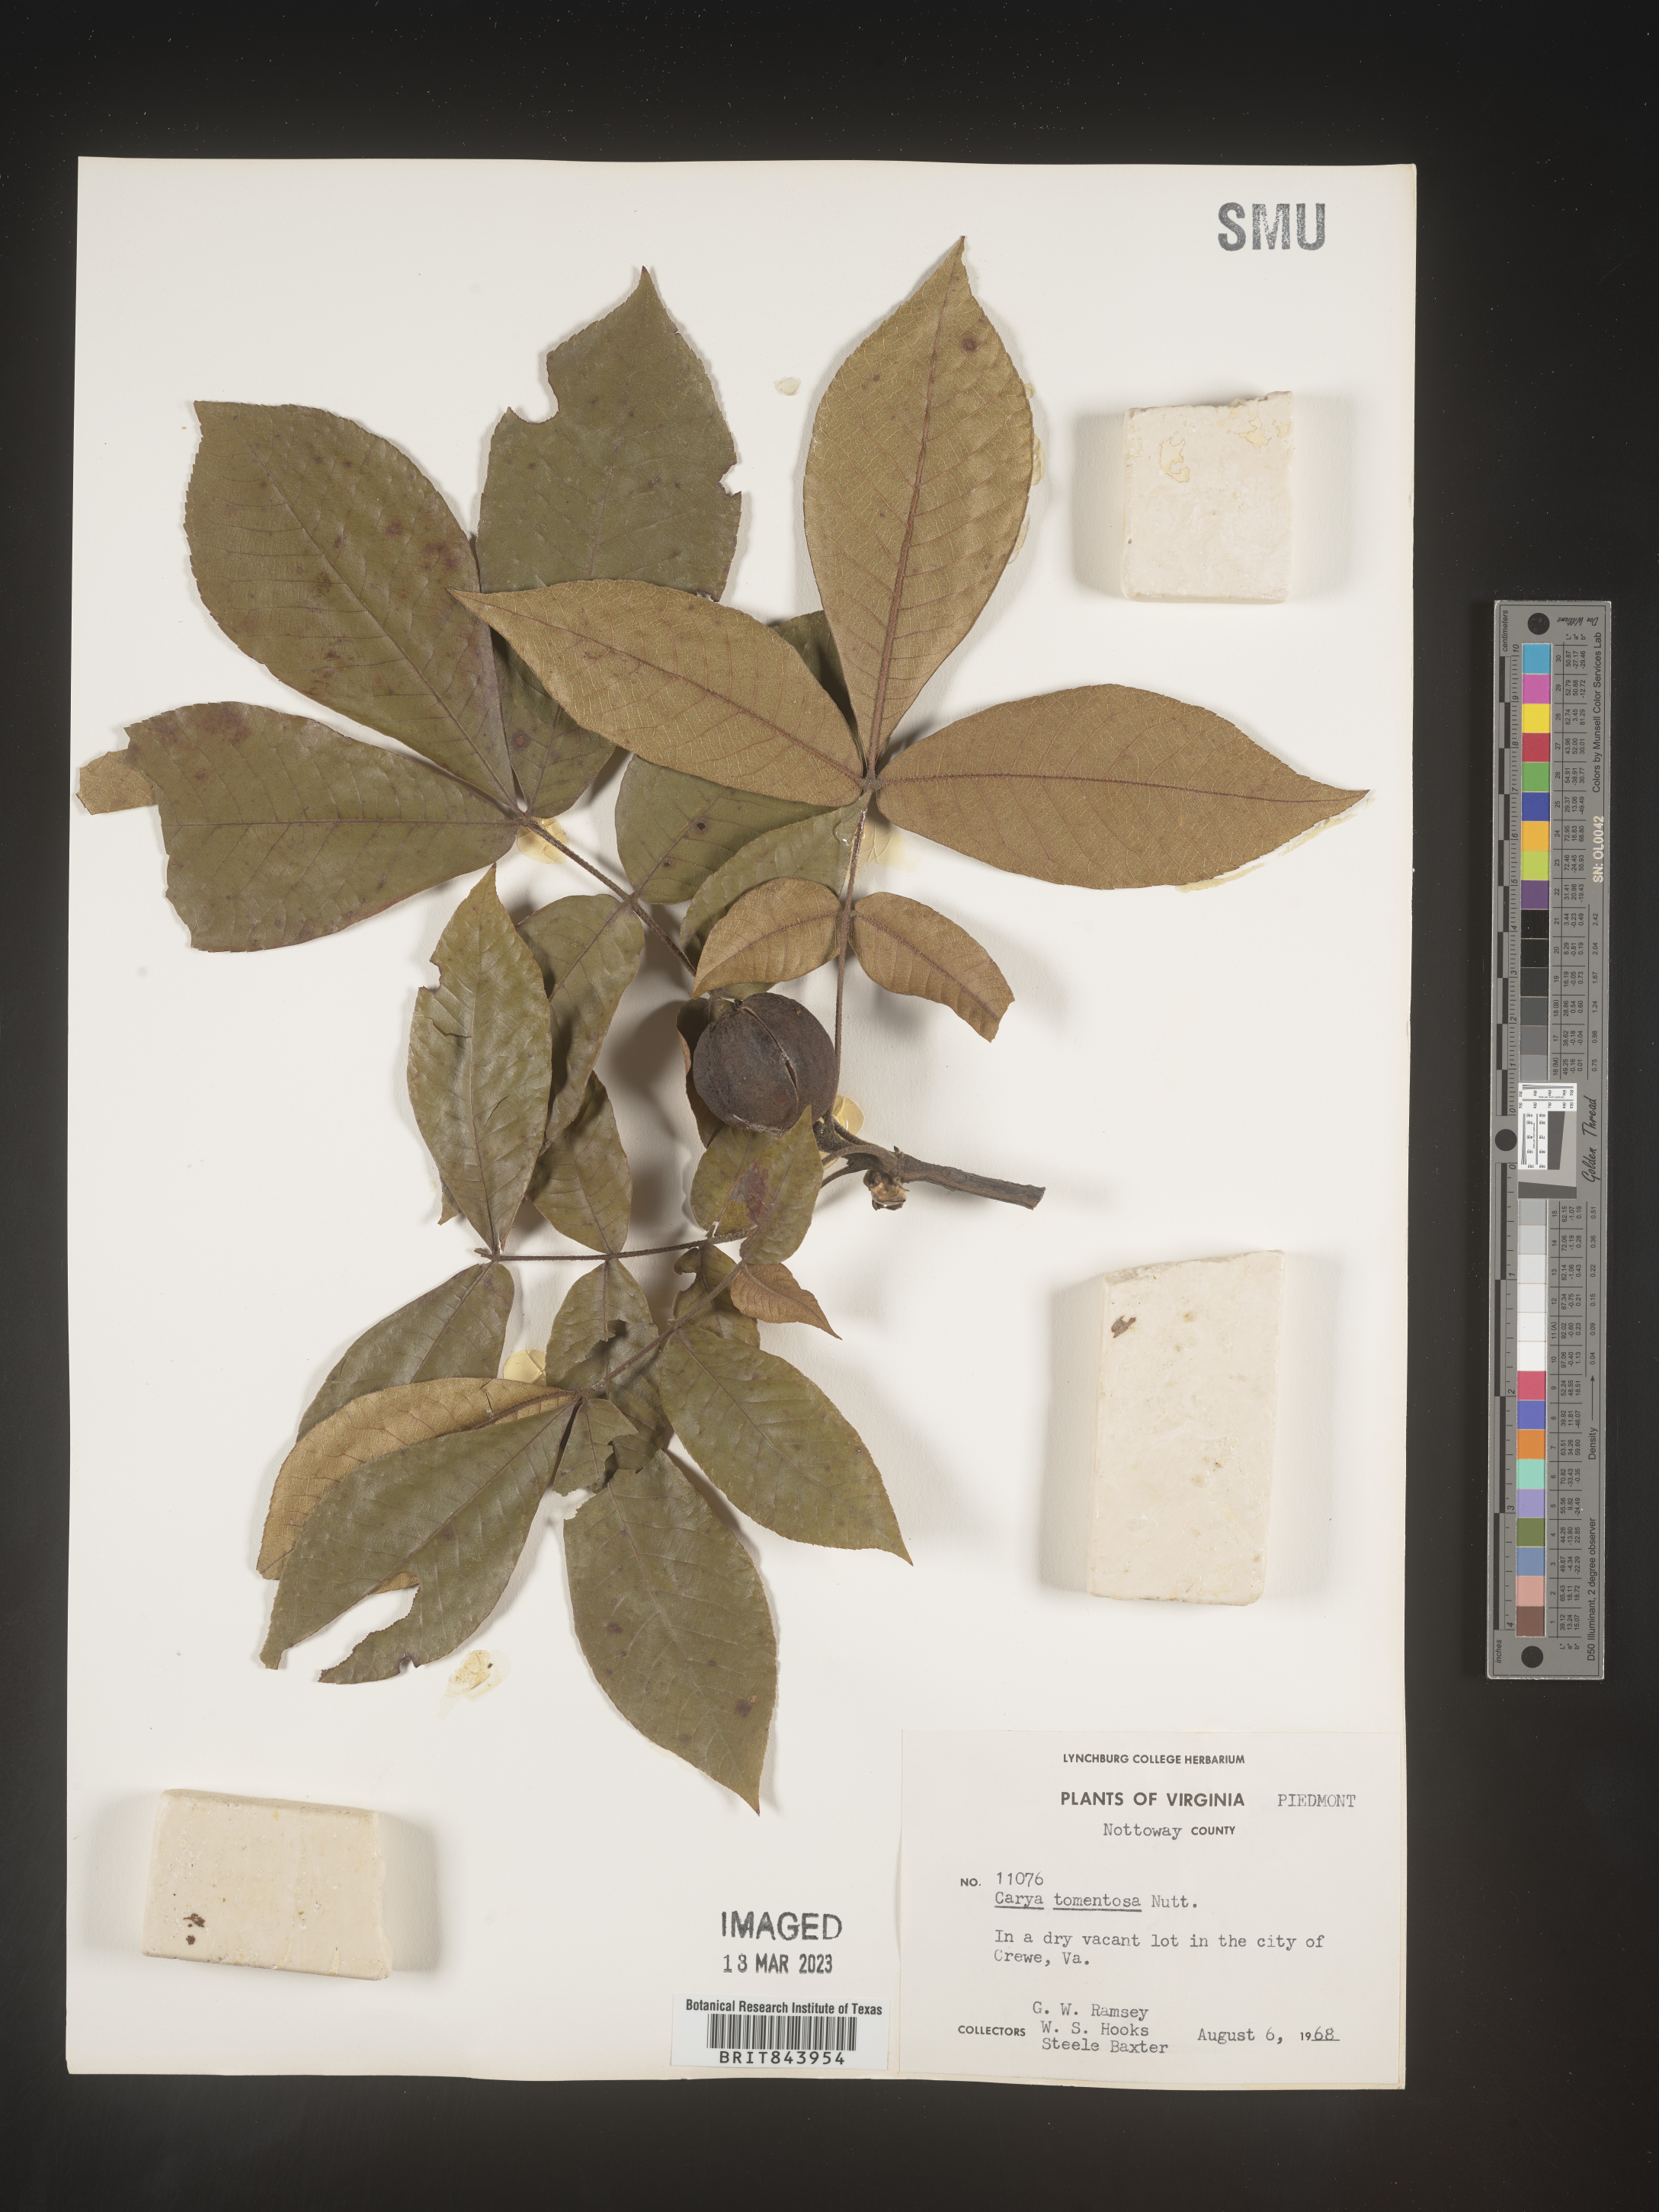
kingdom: Plantae
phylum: Tracheophyta
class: Magnoliopsida
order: Fagales
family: Juglandaceae
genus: Carya
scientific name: Carya alba
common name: Mockernut hickory
